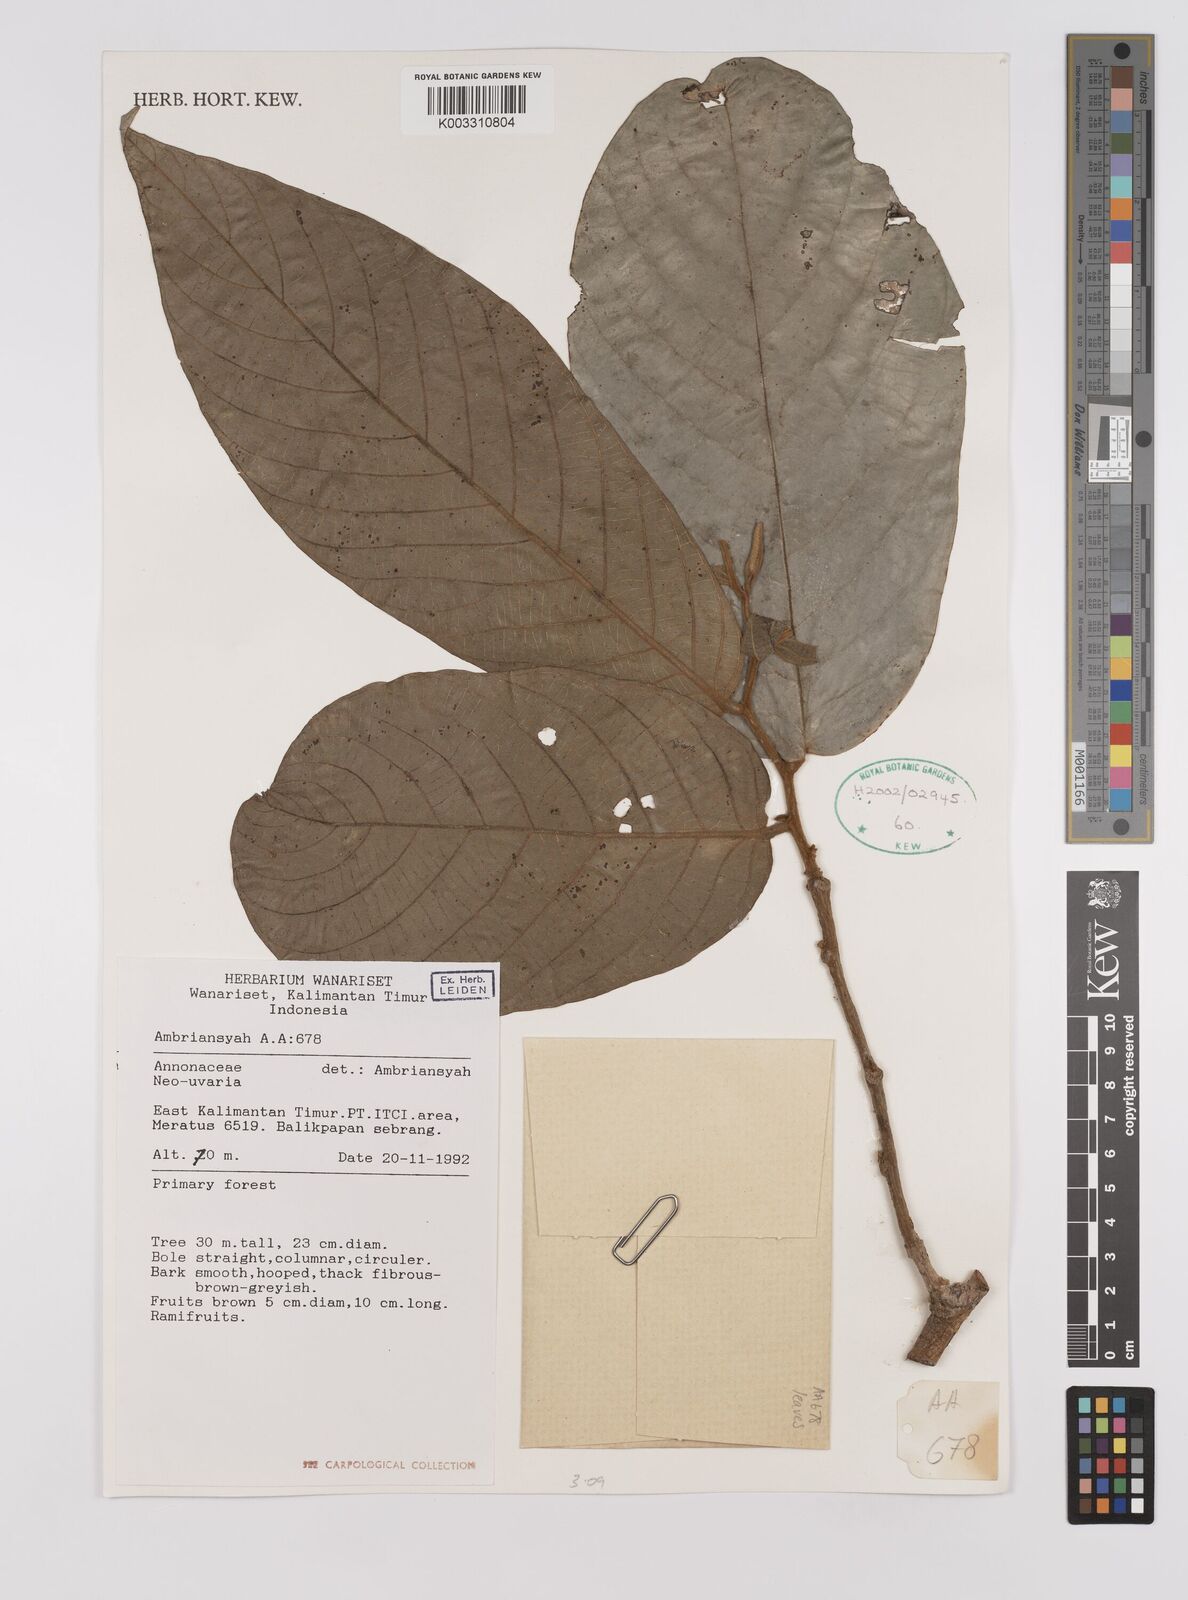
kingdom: Plantae
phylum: Tracheophyta
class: Magnoliopsida
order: Magnoliales
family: Annonaceae
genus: Neo-uvaria
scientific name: Neo-uvaria
